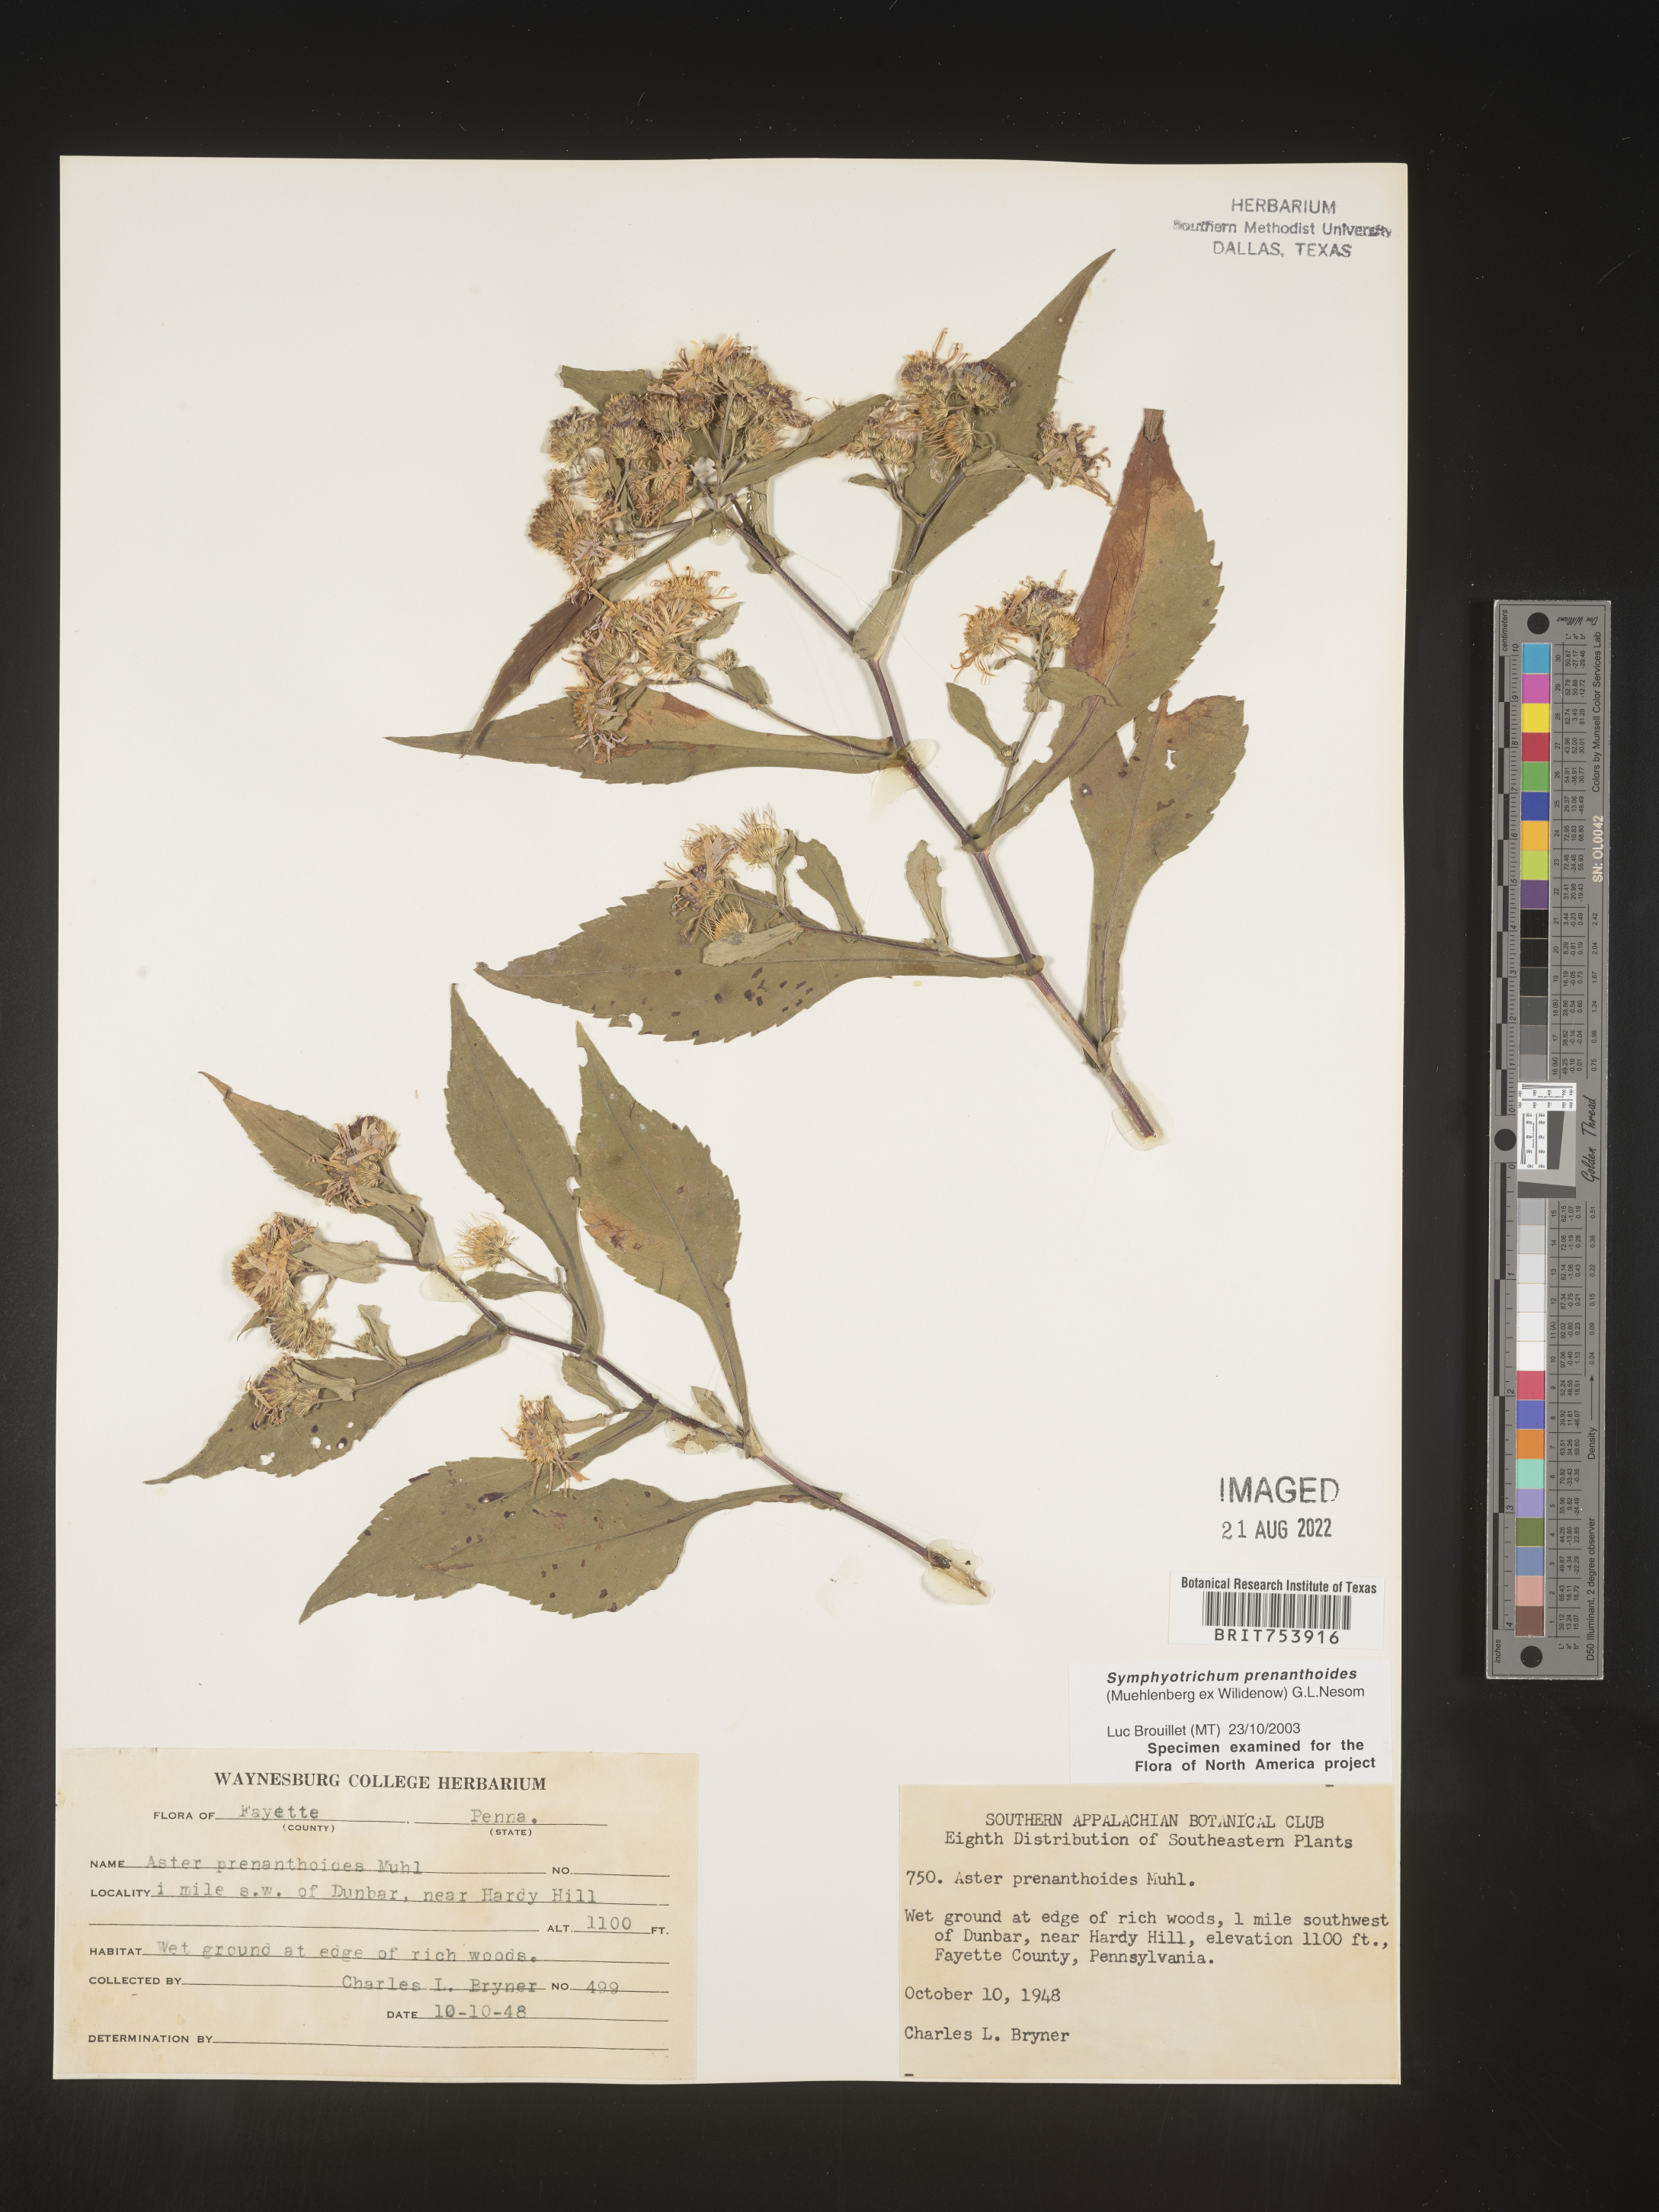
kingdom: Plantae
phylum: Tracheophyta
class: Magnoliopsida
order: Asterales
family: Asteraceae
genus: Symphyotrichum
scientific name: Symphyotrichum prenanthoides
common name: Crooked-stem aster
